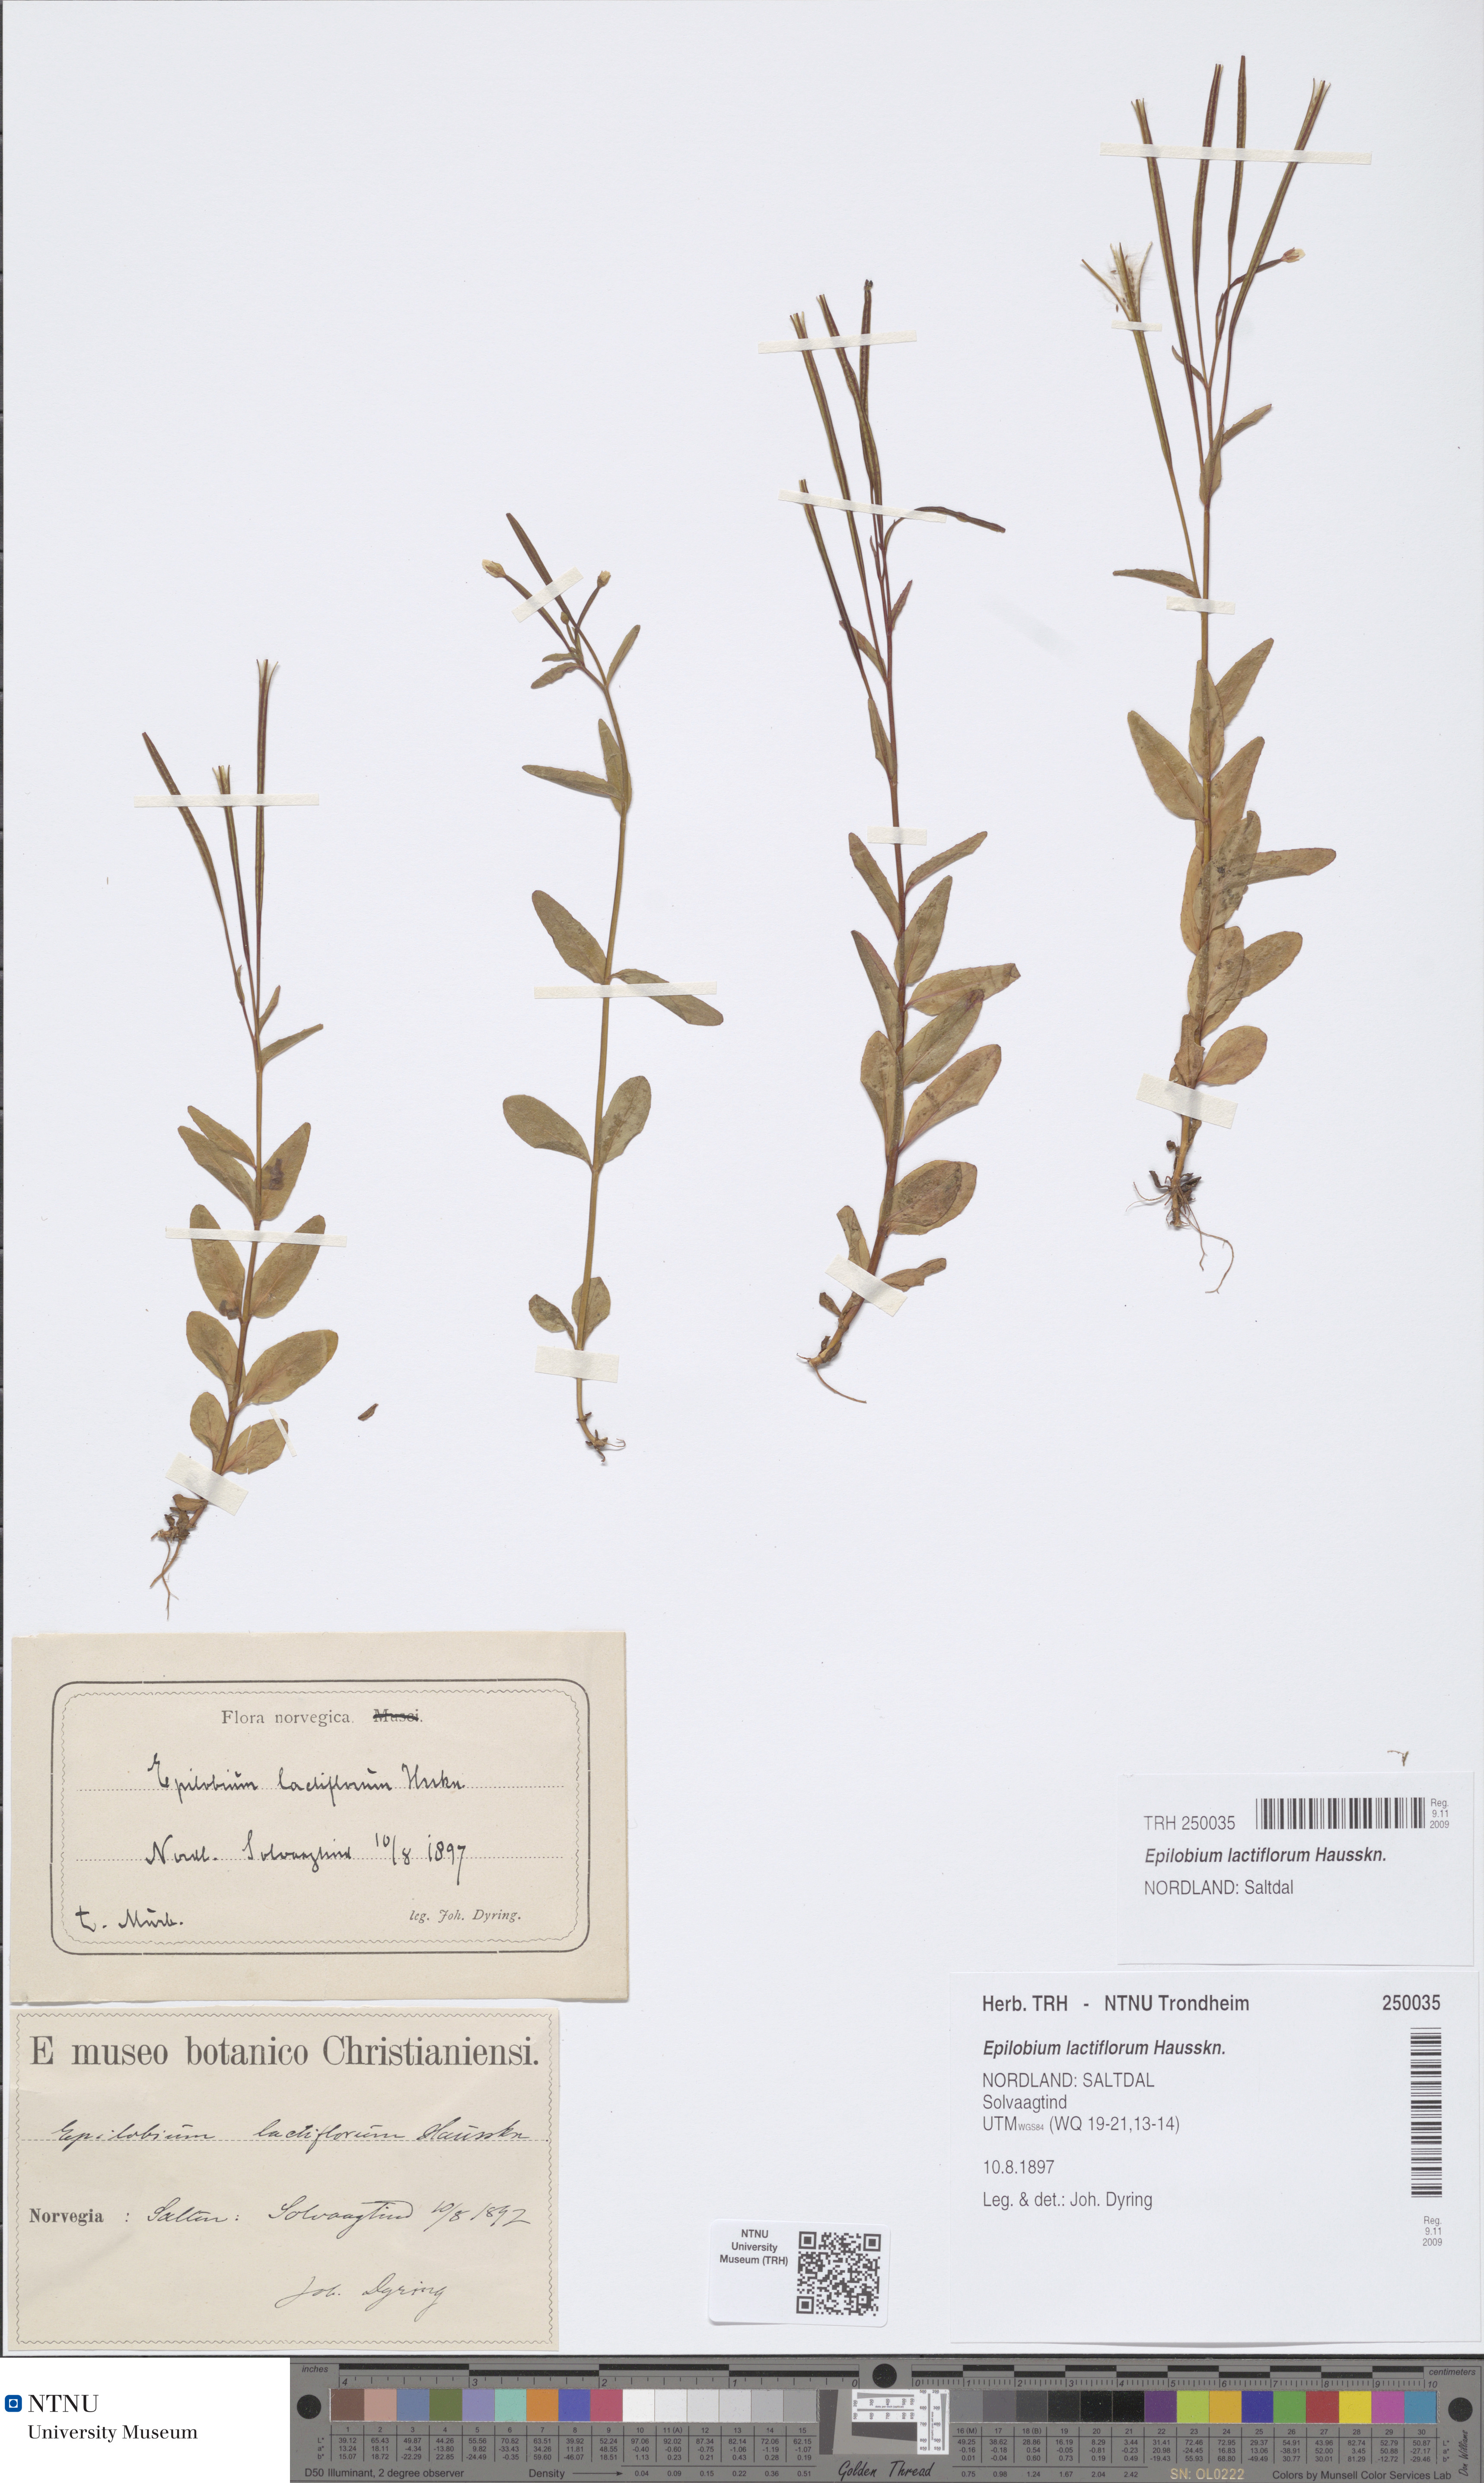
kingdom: Plantae
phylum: Tracheophyta
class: Magnoliopsida
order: Myrtales
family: Onagraceae
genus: Epilobium
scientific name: Epilobium lactiflorum
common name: Milkflower willowherb
